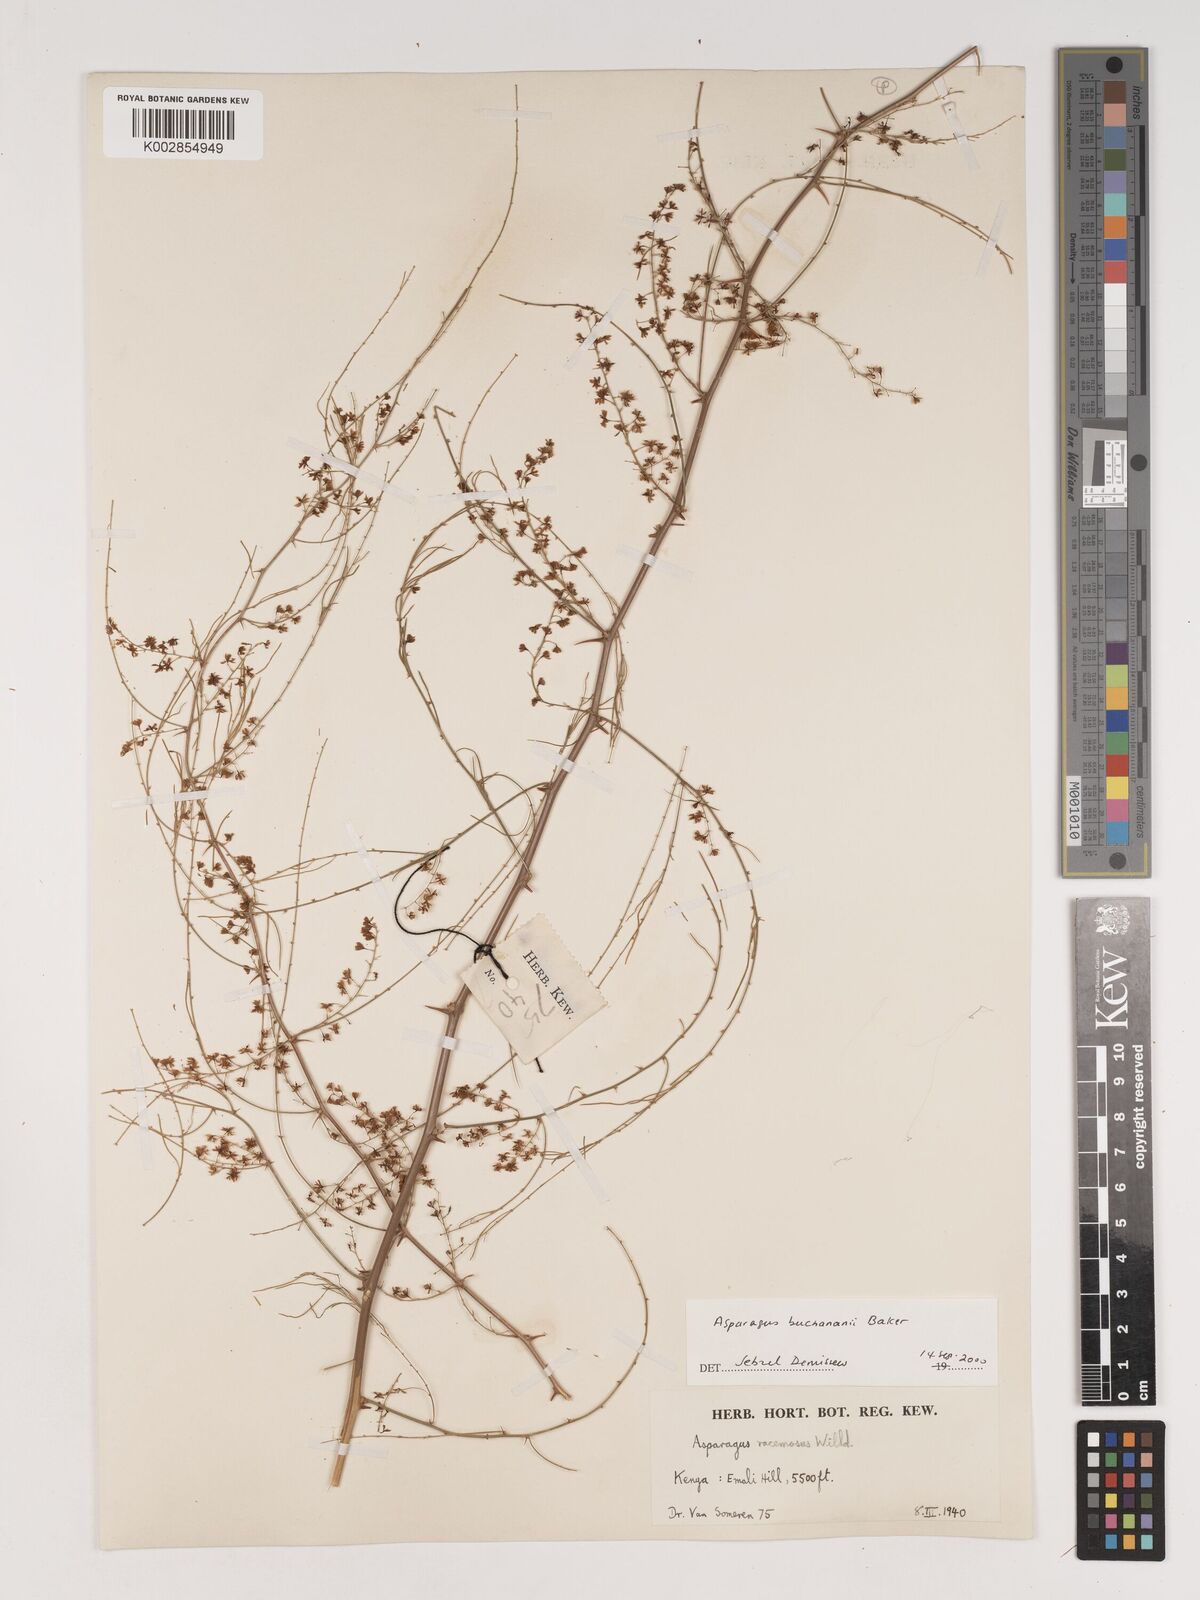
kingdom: Plantae
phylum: Tracheophyta
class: Liliopsida
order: Asparagales
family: Asparagaceae
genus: Asparagus
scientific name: Asparagus buchananii
